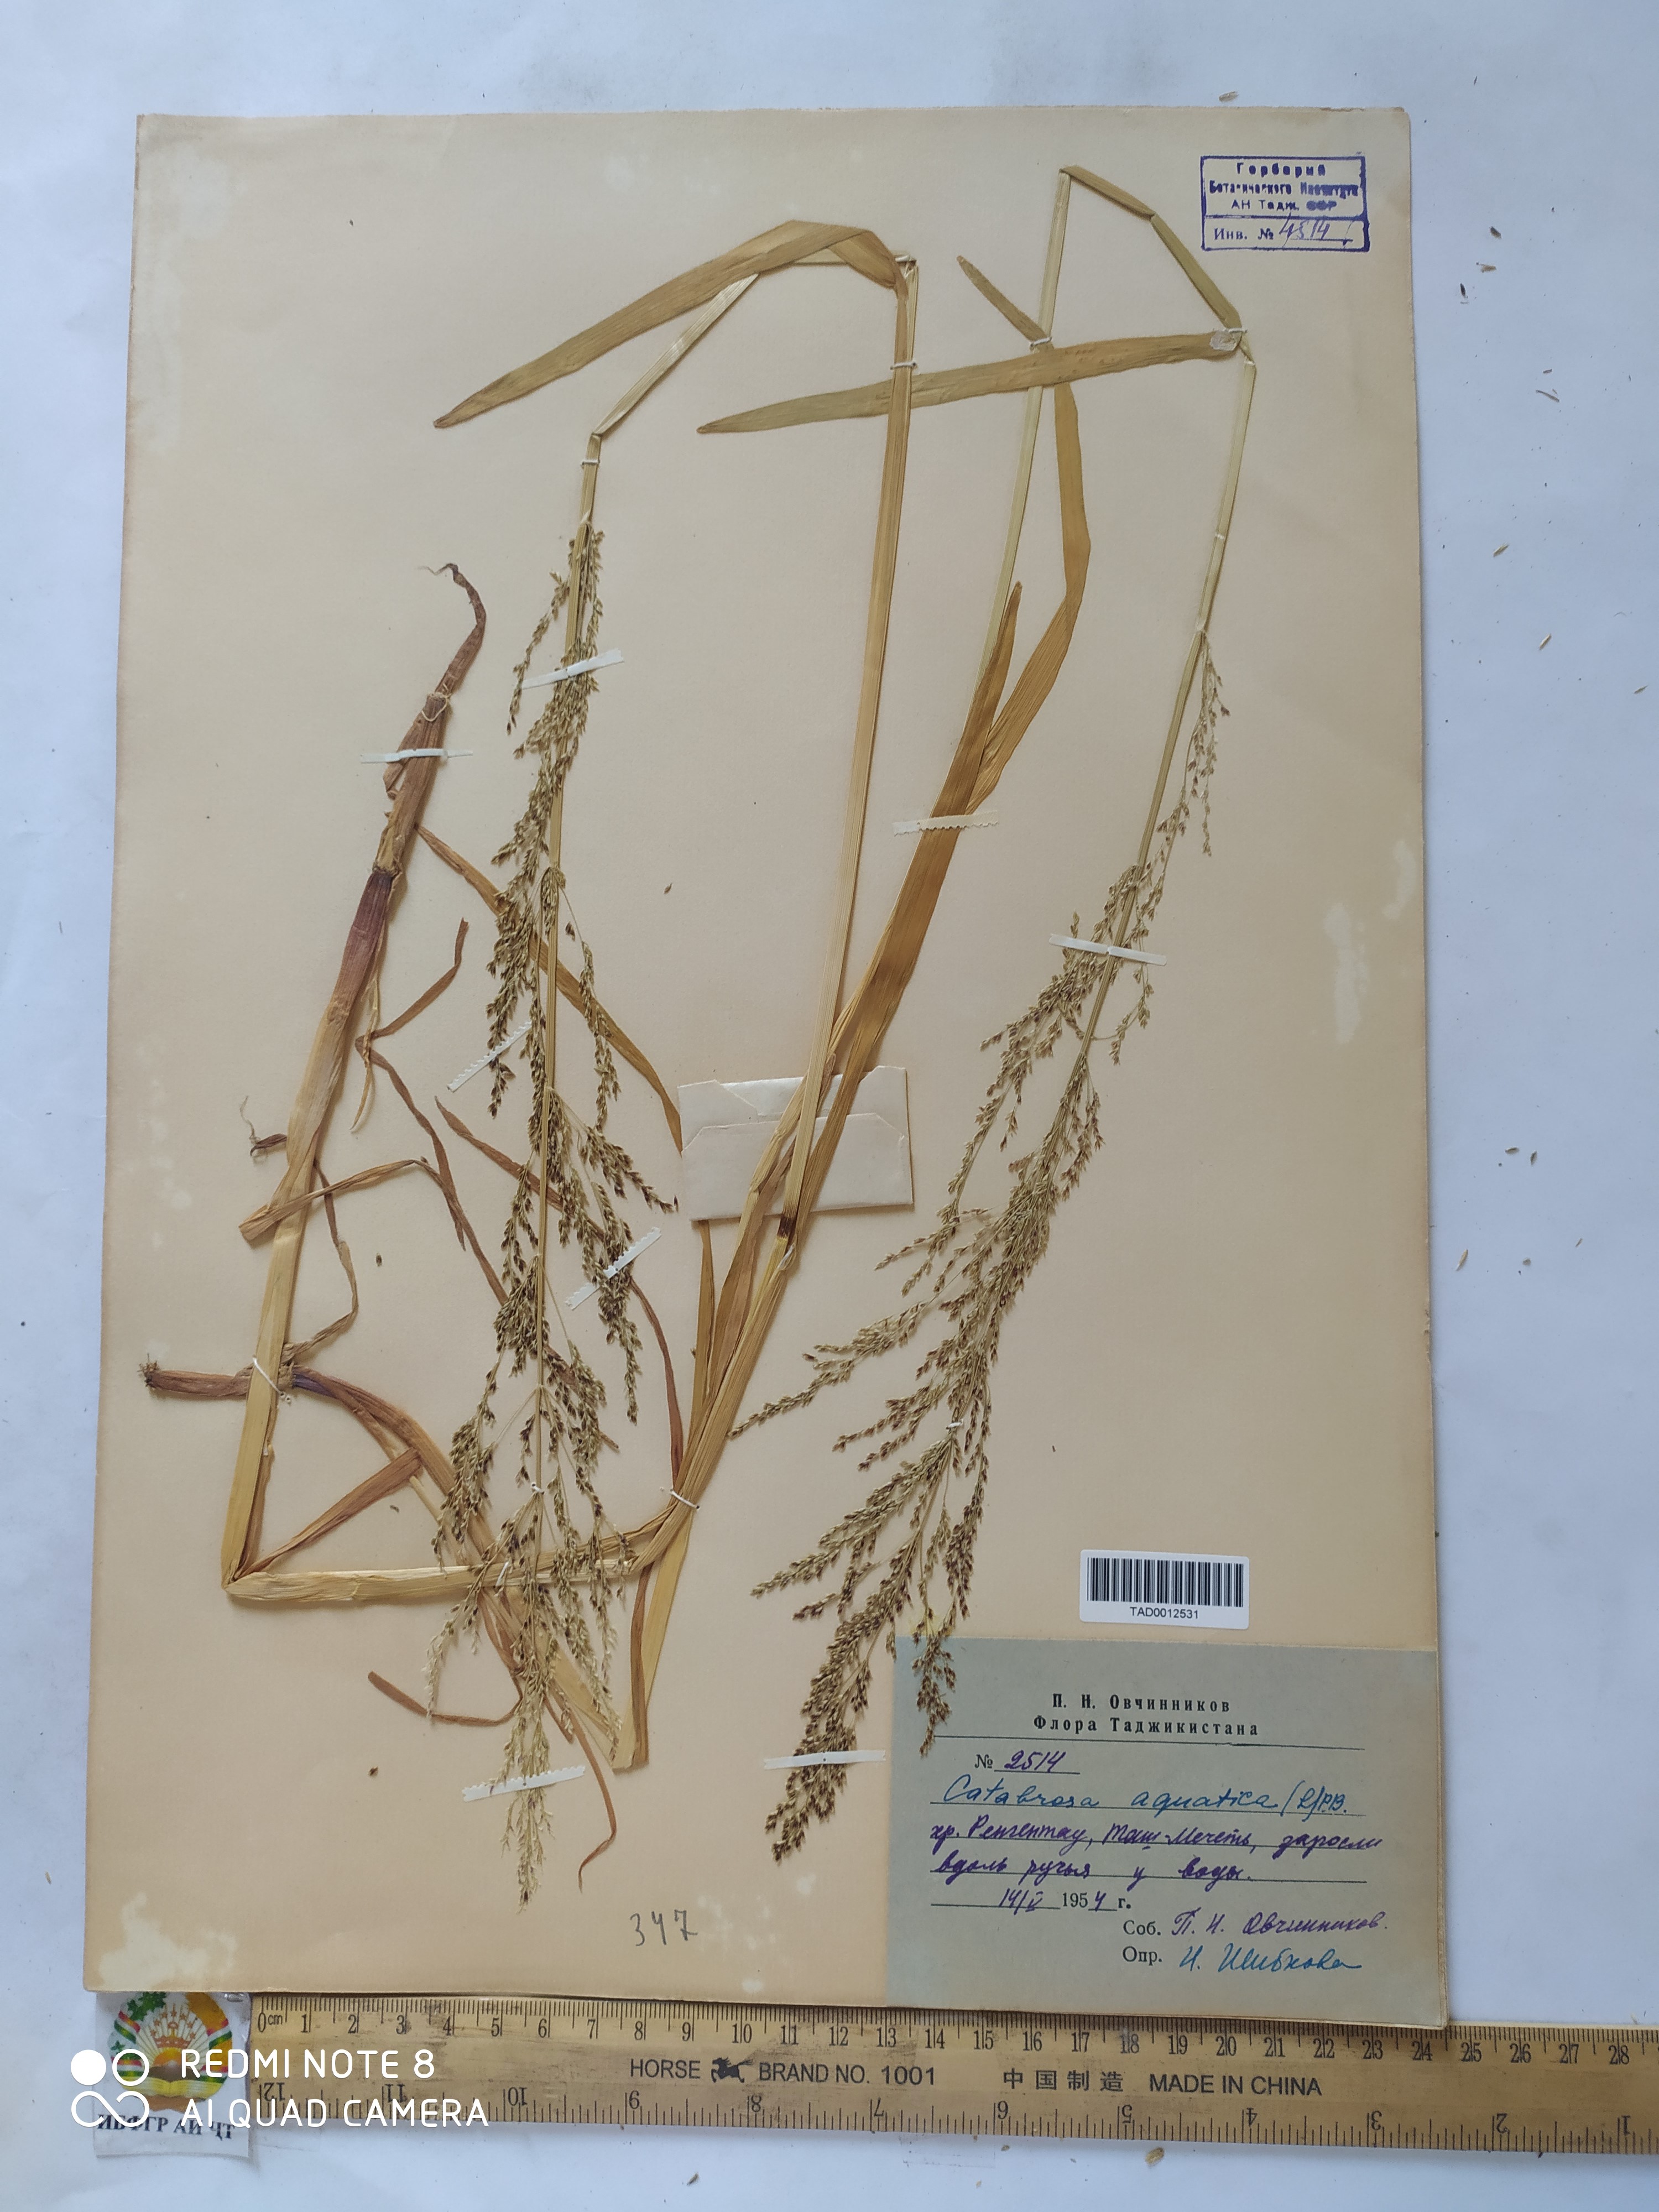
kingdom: Plantae
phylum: Tracheophyta
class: Liliopsida
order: Poales
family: Poaceae
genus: Catabrosa
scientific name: Catabrosa aquatica
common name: Whorl-grass
